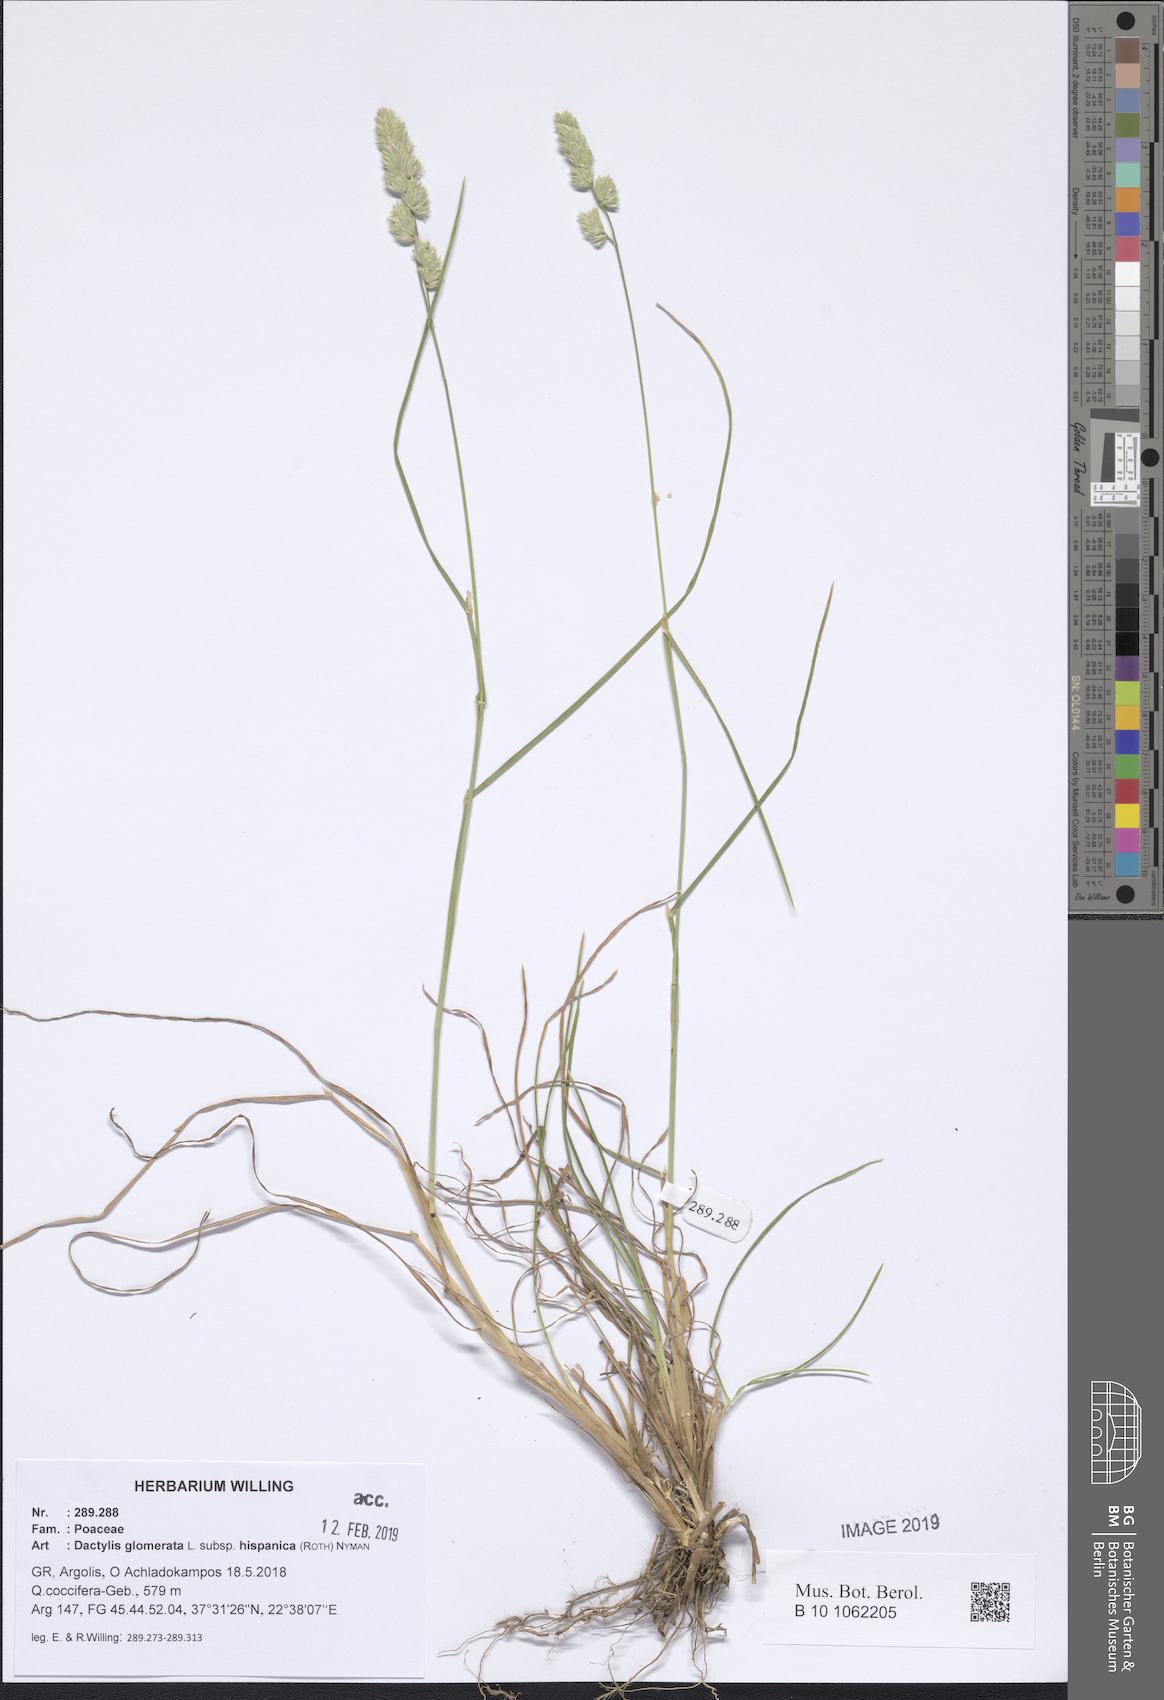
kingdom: Plantae
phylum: Tracheophyta
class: Liliopsida
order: Poales
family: Poaceae
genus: Dactylis
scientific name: Dactylis glomerata
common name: Orchardgrass
